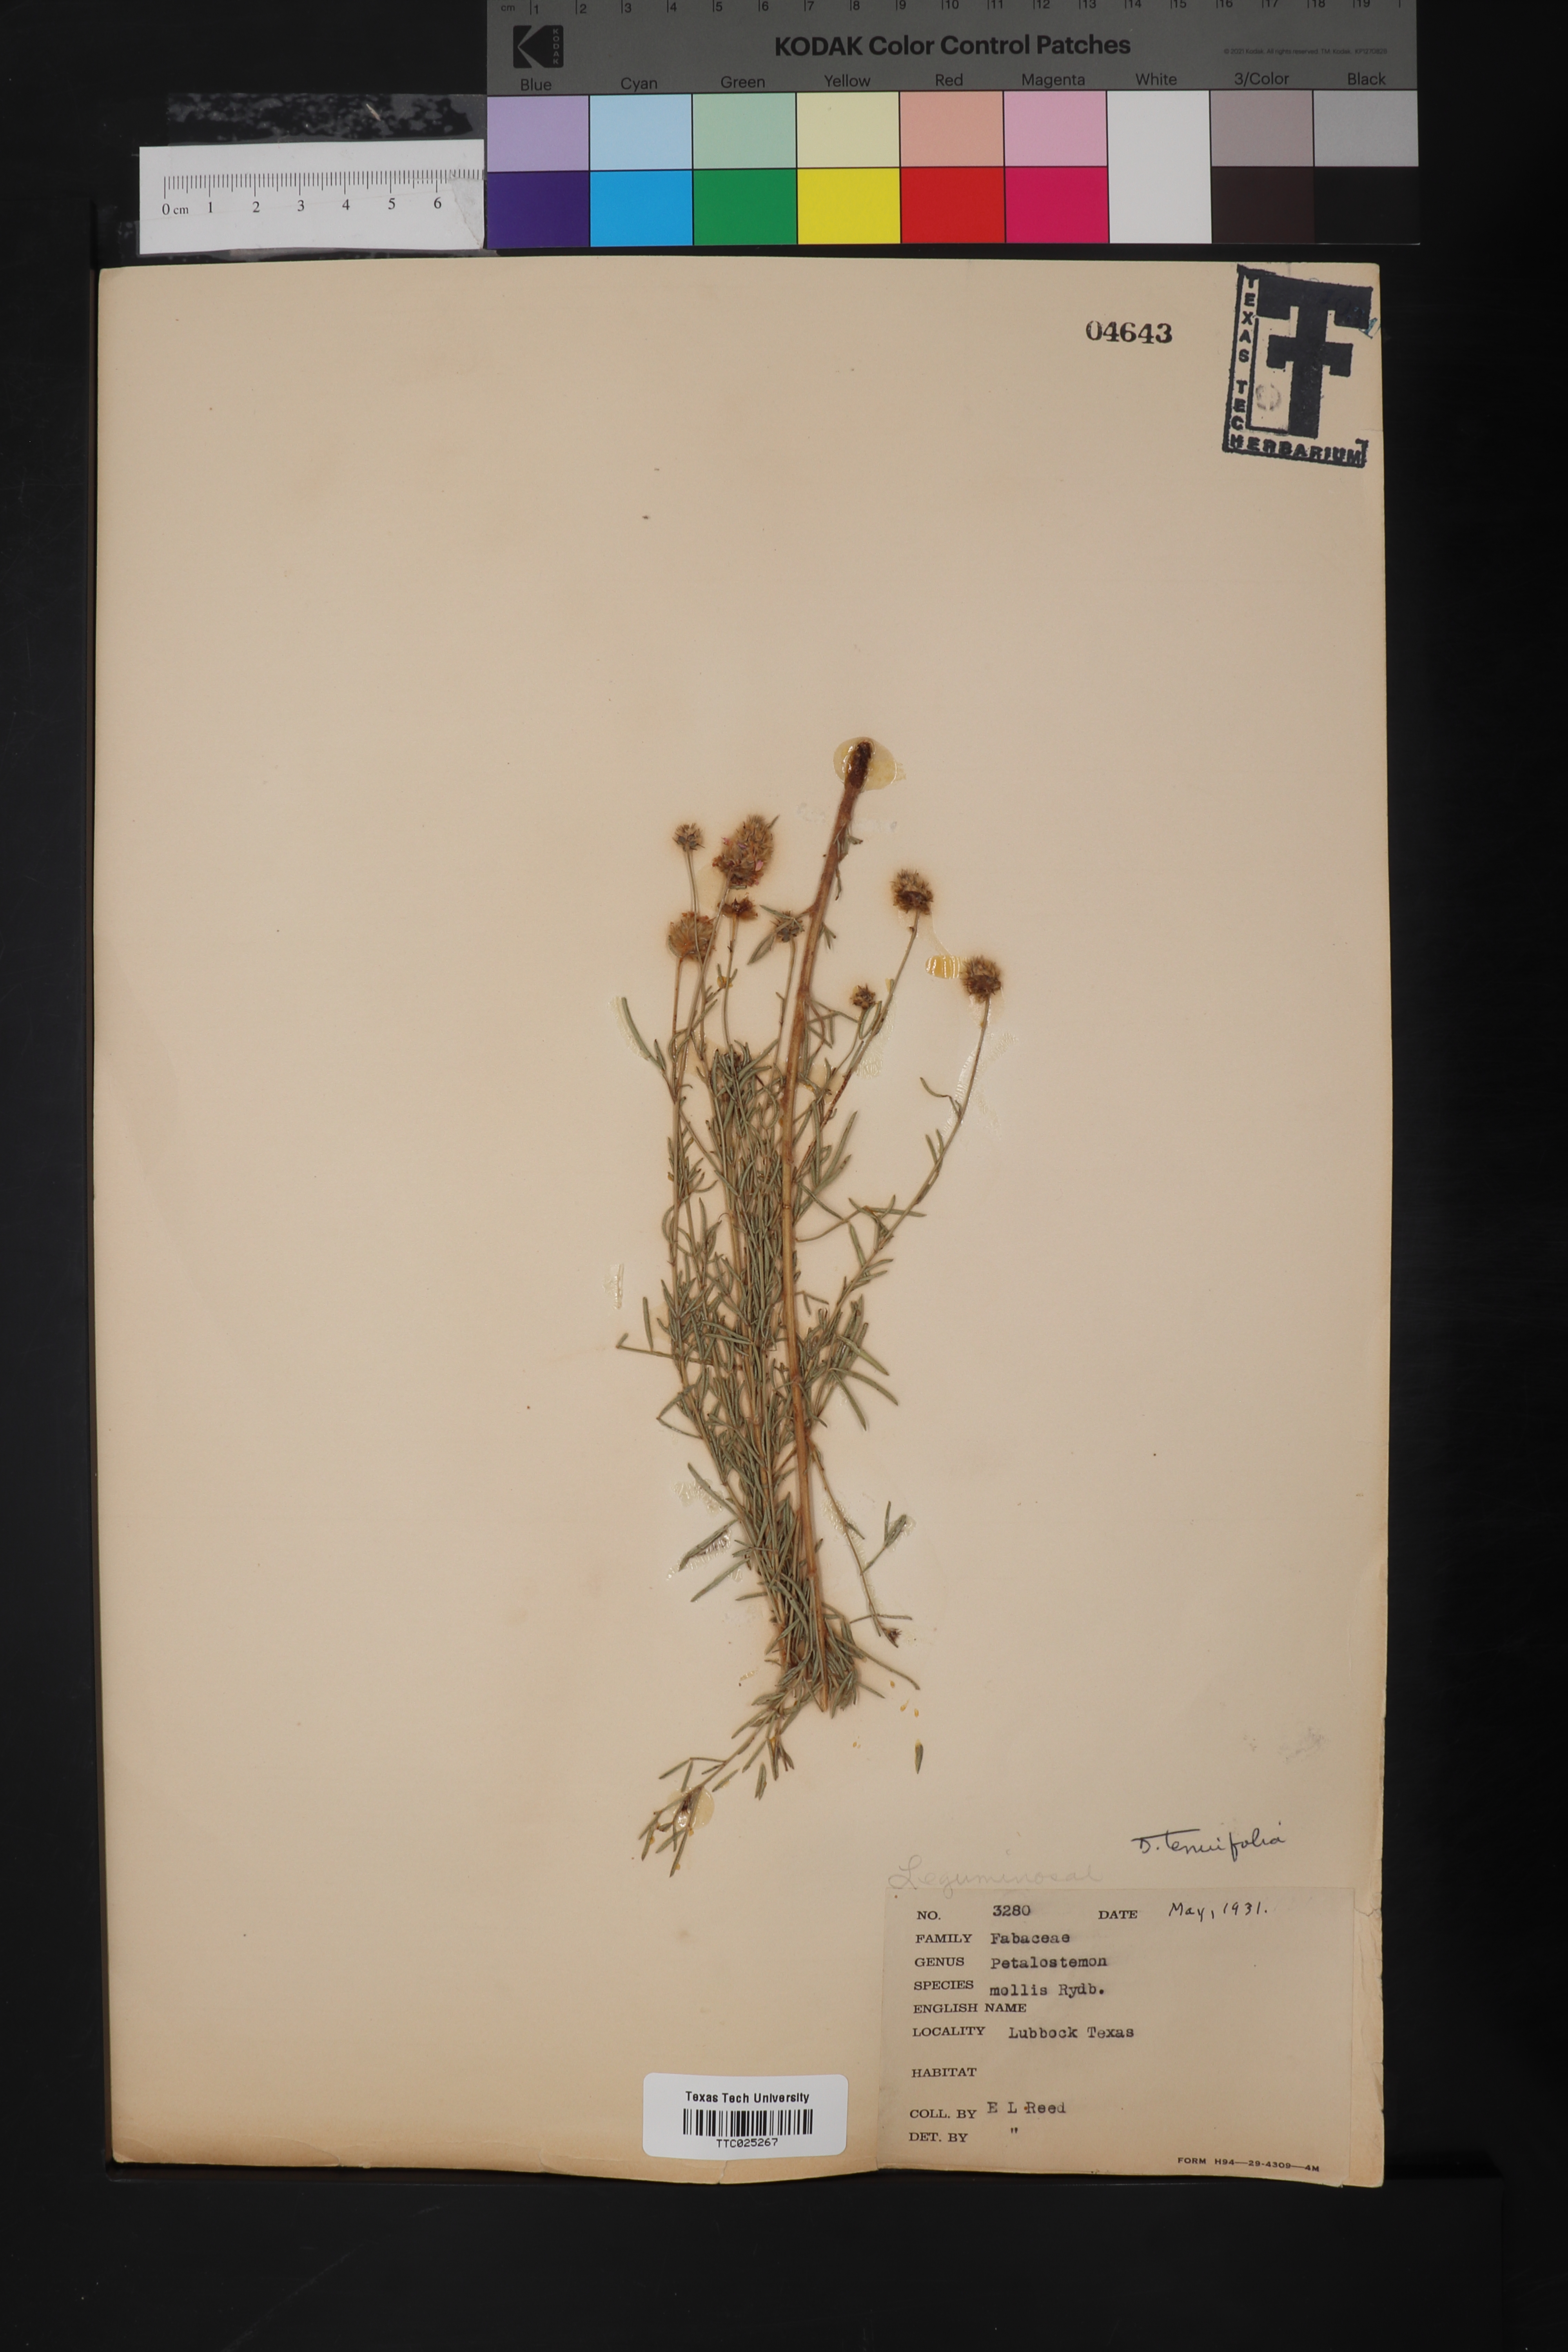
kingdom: Plantae
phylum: Tracheophyta
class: Magnoliopsida
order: Brassicales
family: Brassicaceae
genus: Diplotaxis
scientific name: Diplotaxis tenuifolia
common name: Perennial wall-rocket
